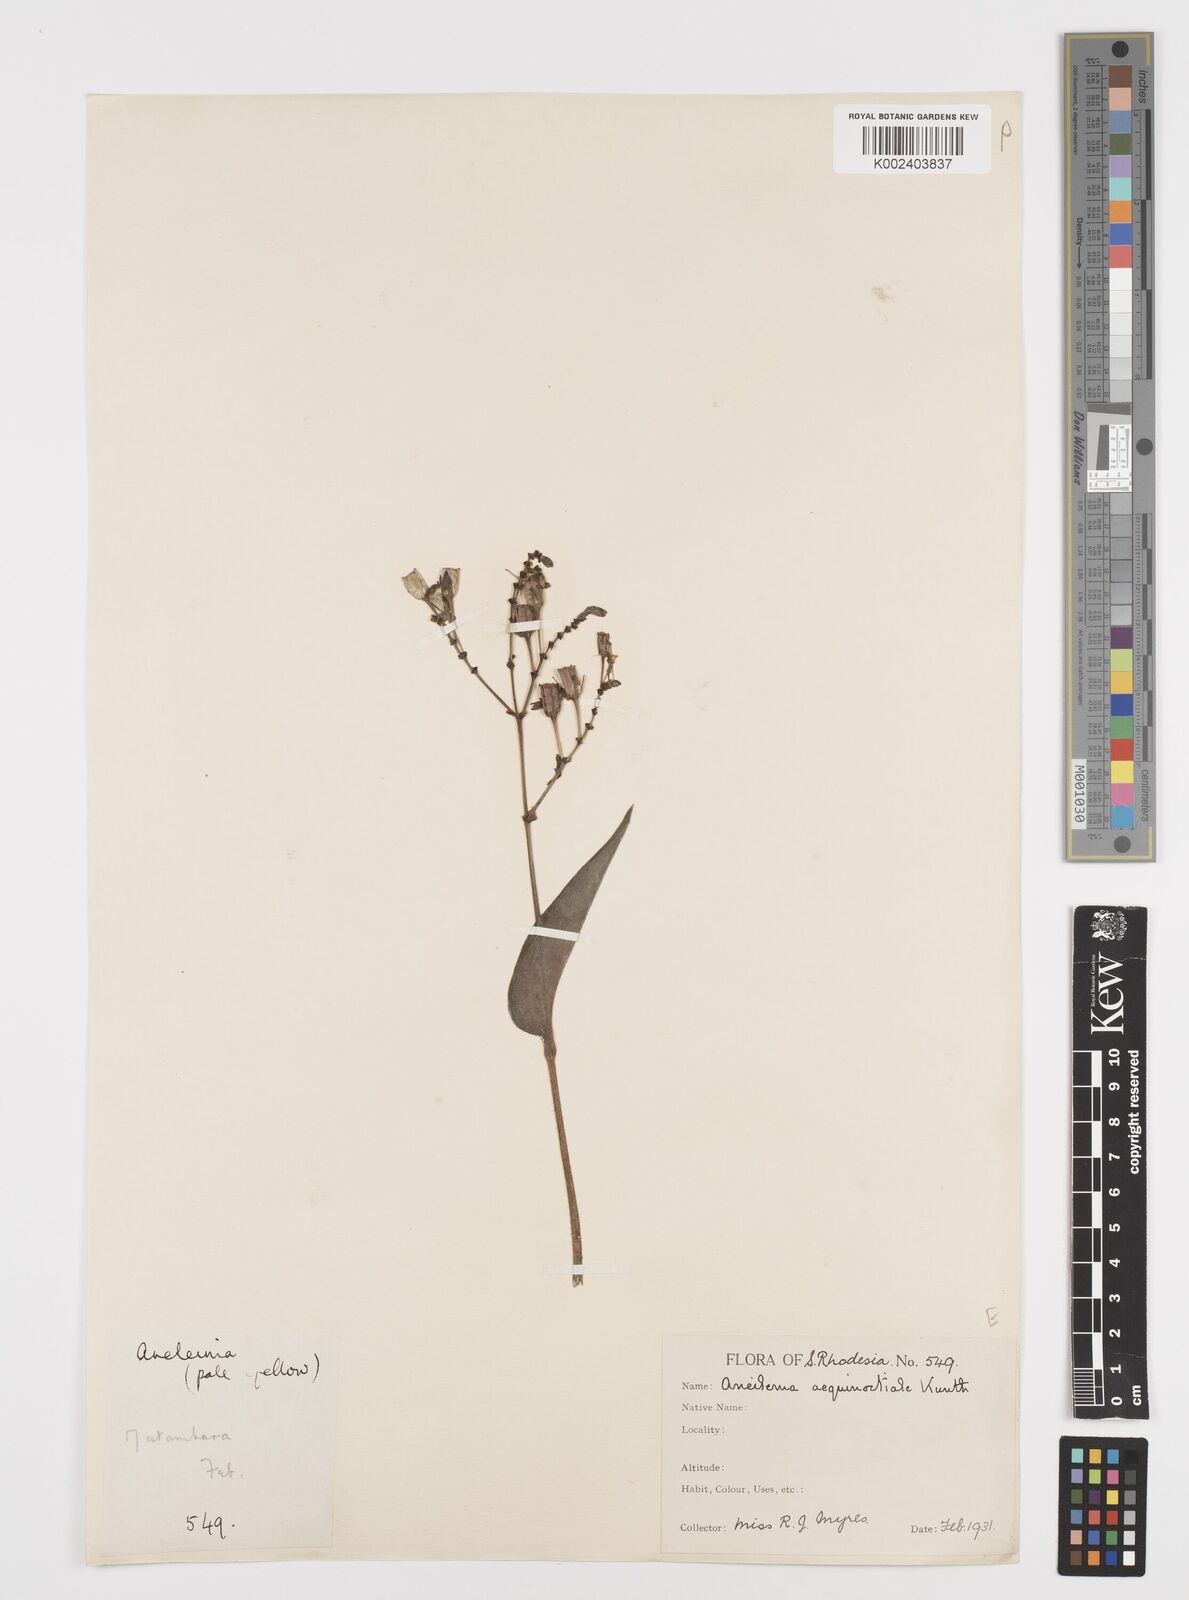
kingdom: Plantae
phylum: Tracheophyta
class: Liliopsida
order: Commelinales
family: Commelinaceae
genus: Aneilema
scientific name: Aneilema aequinoctiale
